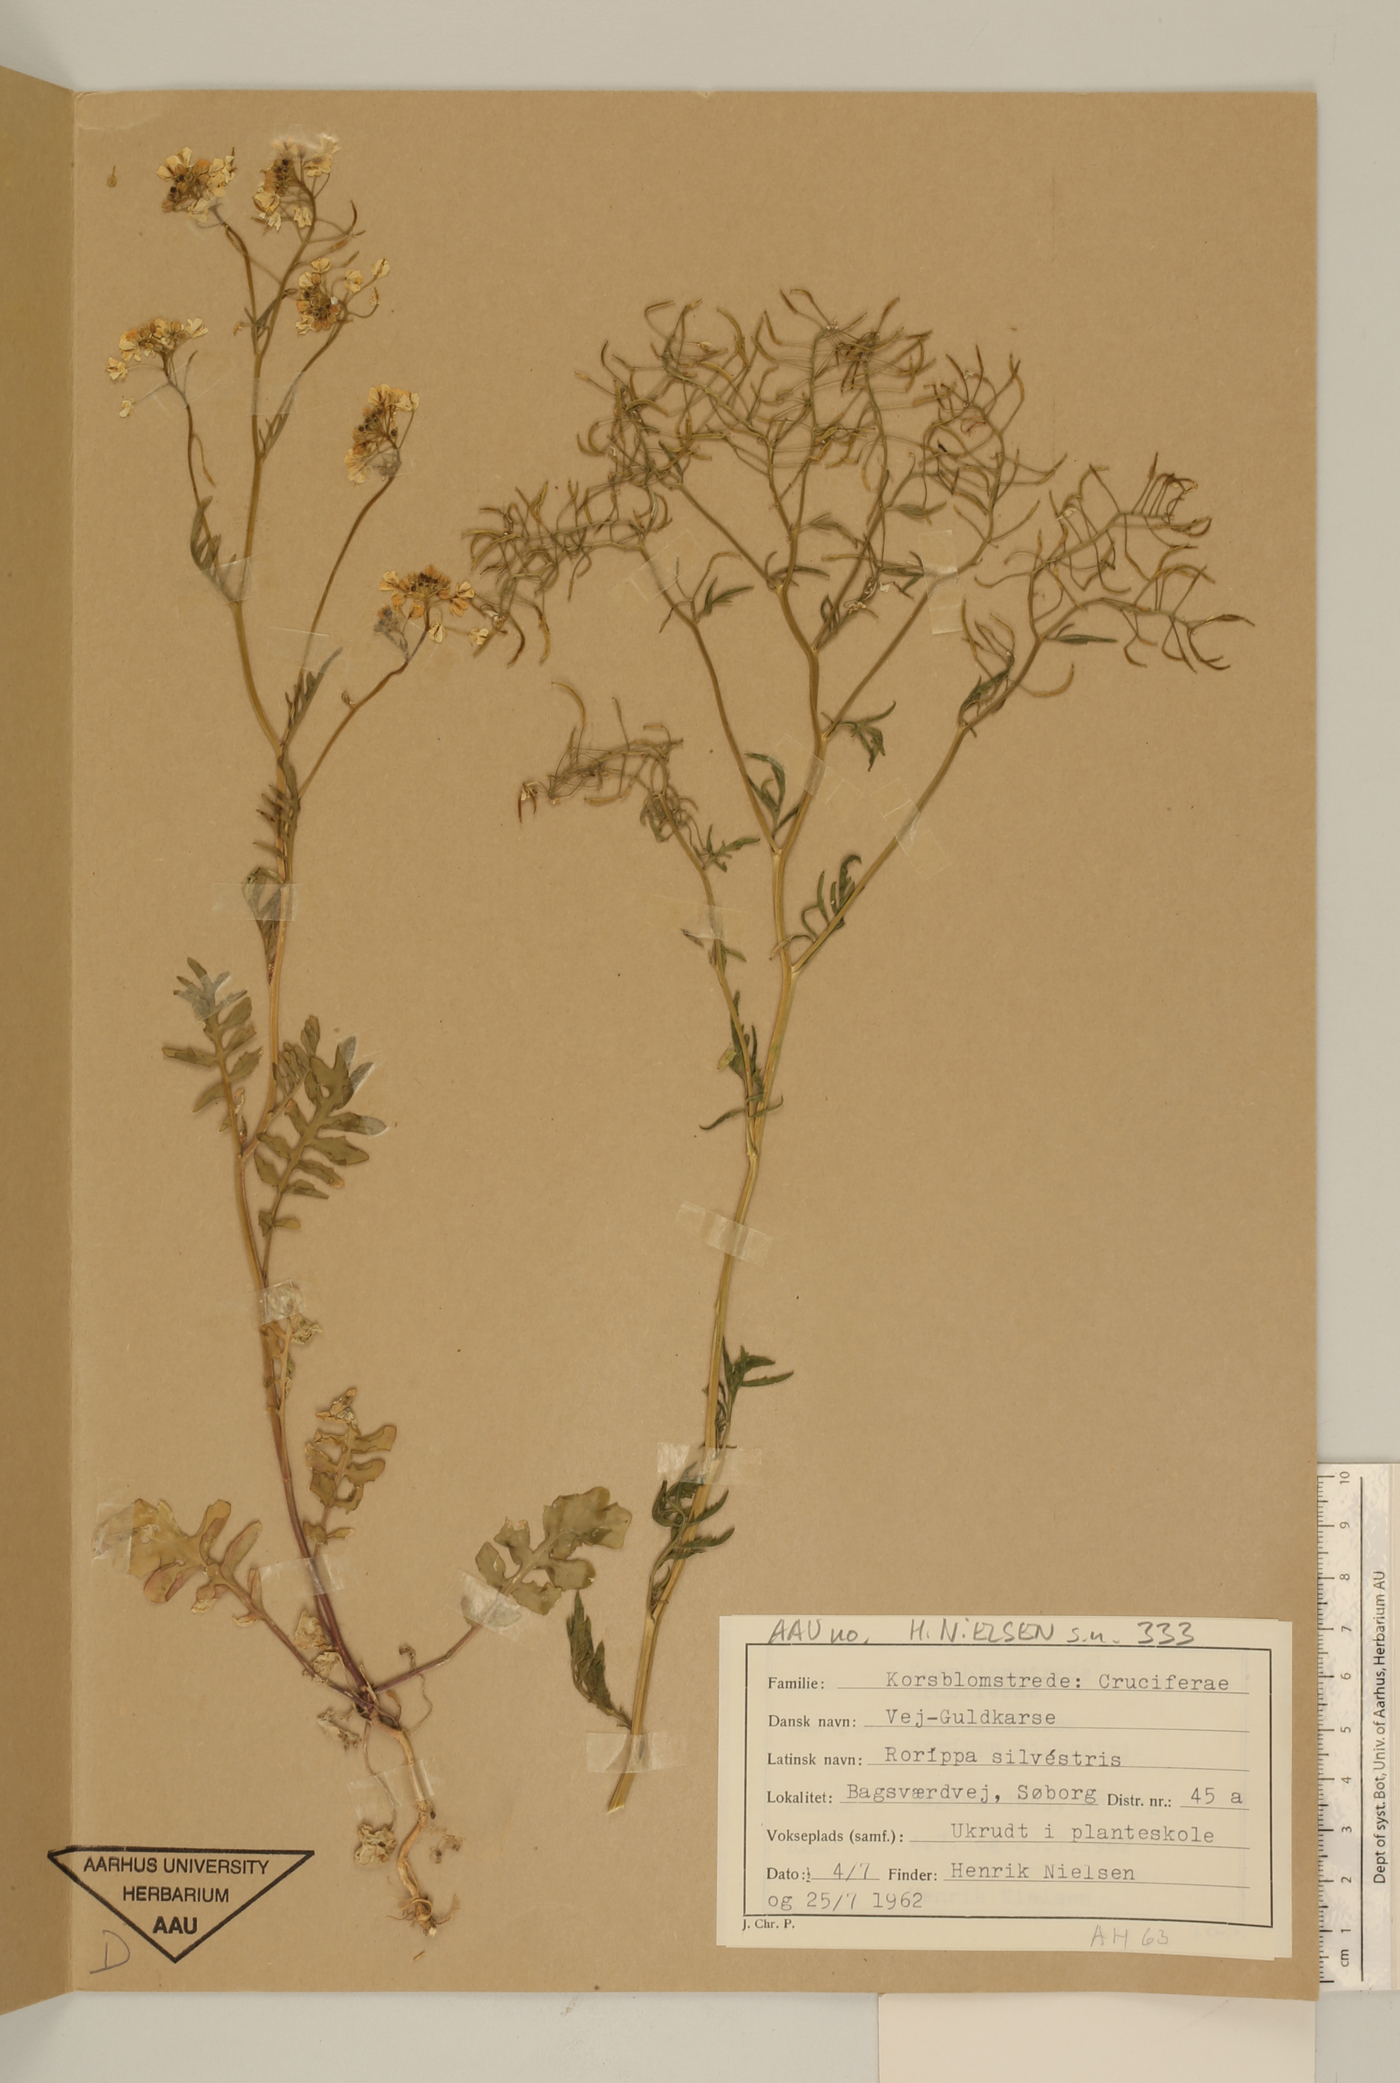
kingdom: Plantae
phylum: Tracheophyta
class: Magnoliopsida
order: Brassicales
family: Brassicaceae
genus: Rorippa
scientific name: Rorippa sylvestris
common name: Creeping yellowcress
